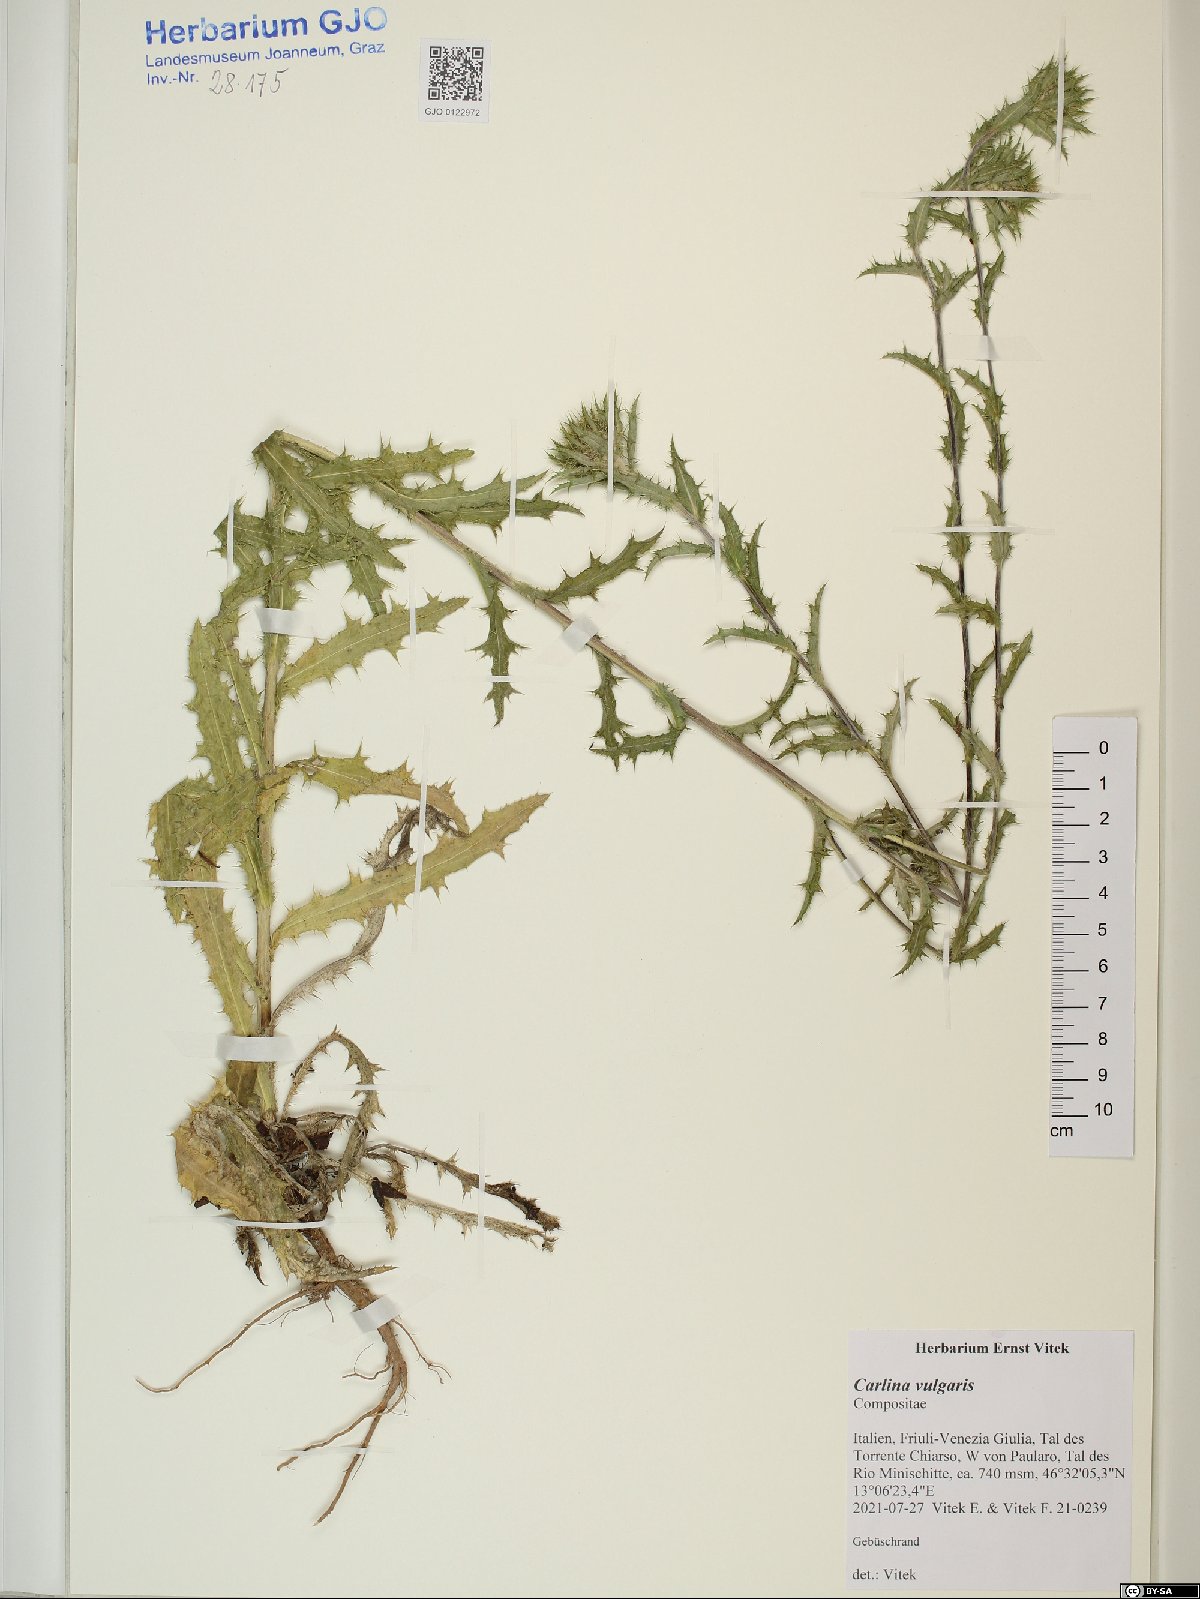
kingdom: Plantae
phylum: Tracheophyta
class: Magnoliopsida
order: Asterales
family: Asteraceae
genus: Carlina
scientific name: Carlina vulgaris
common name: Carline thistle
